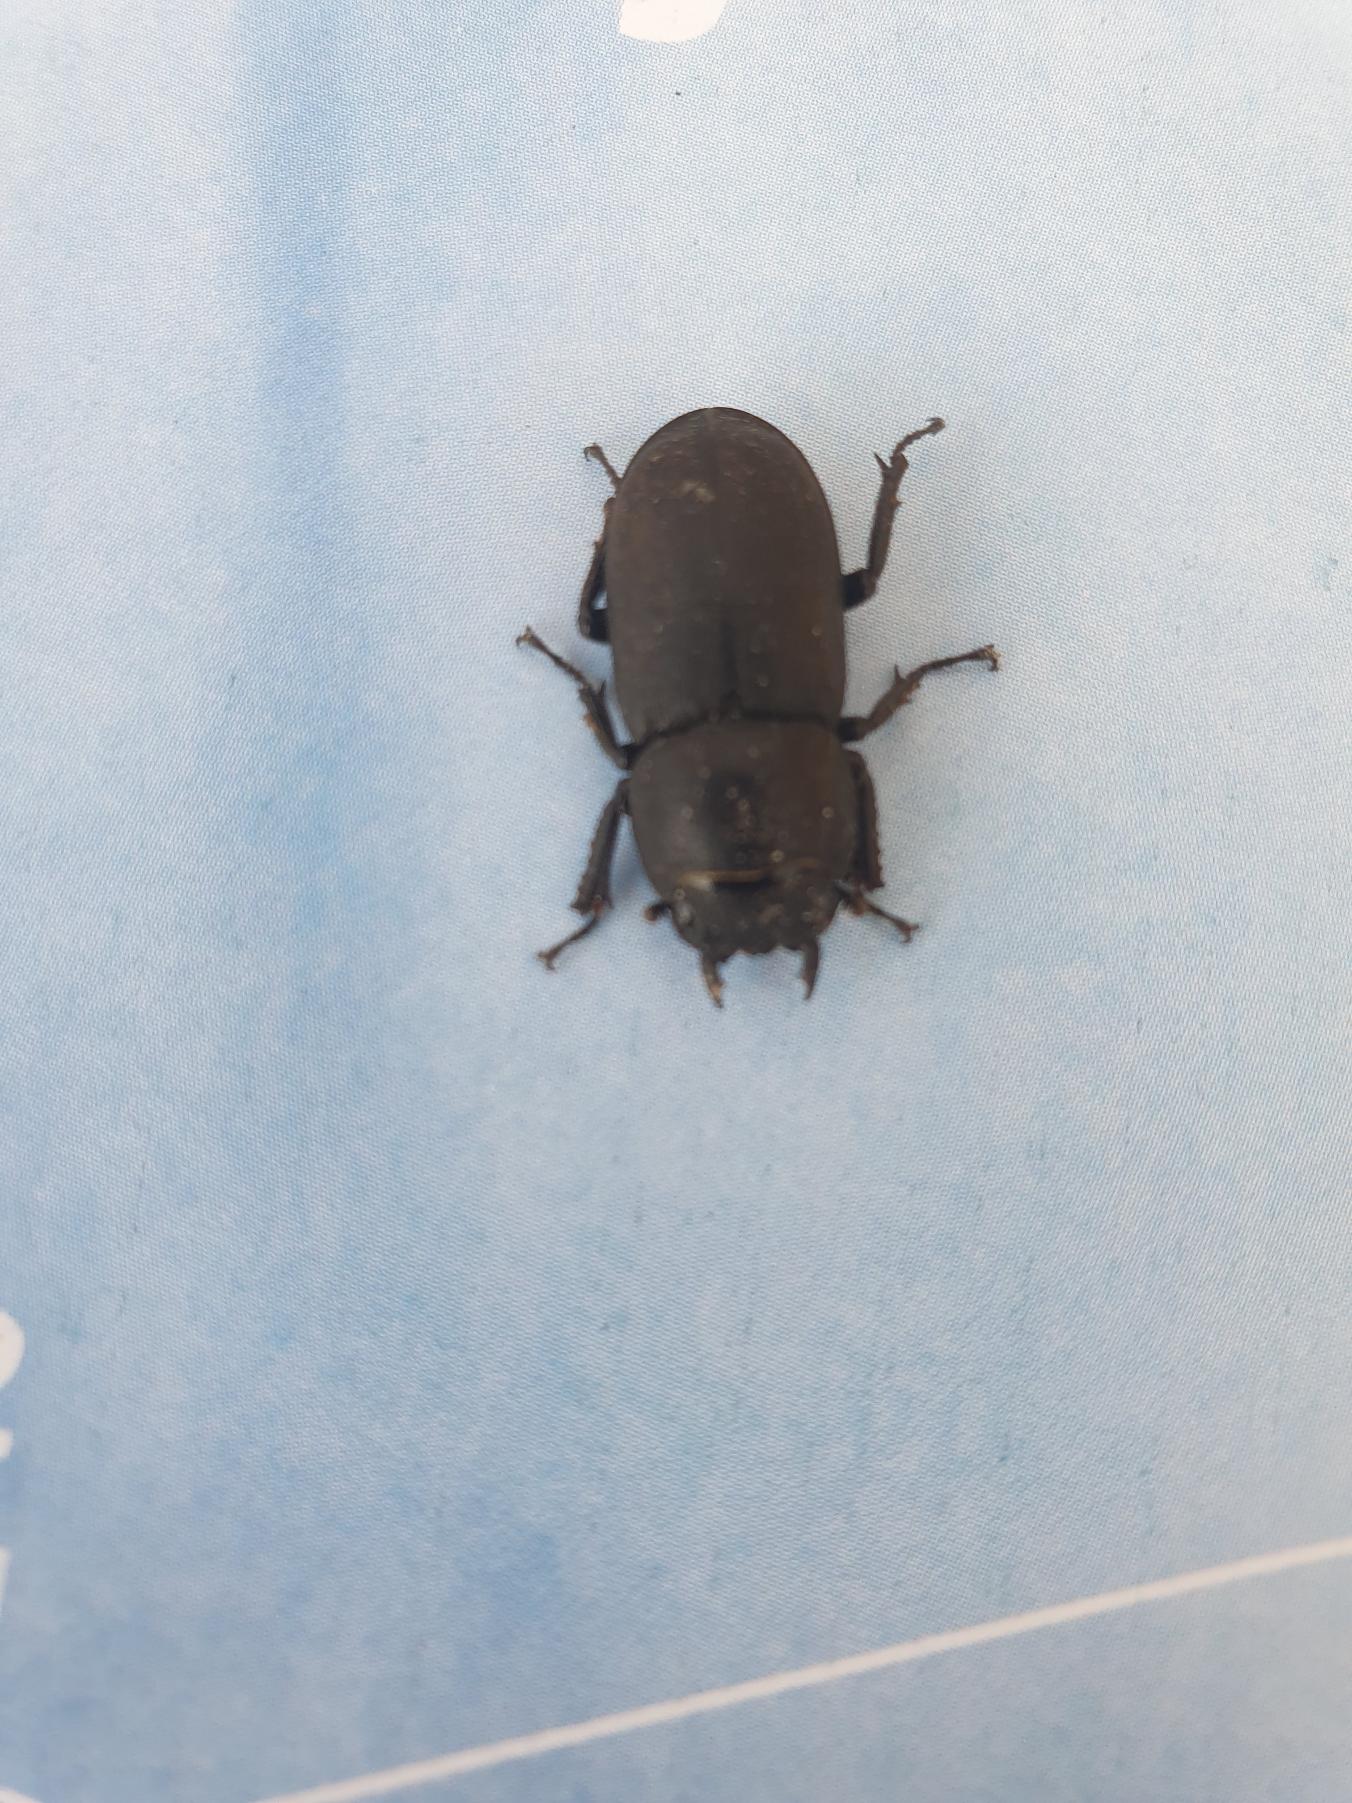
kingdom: Animalia
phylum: Arthropoda
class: Insecta
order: Coleoptera
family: Lucanidae
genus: Dorcus
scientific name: Dorcus parallelipipedus
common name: Bøghjort
